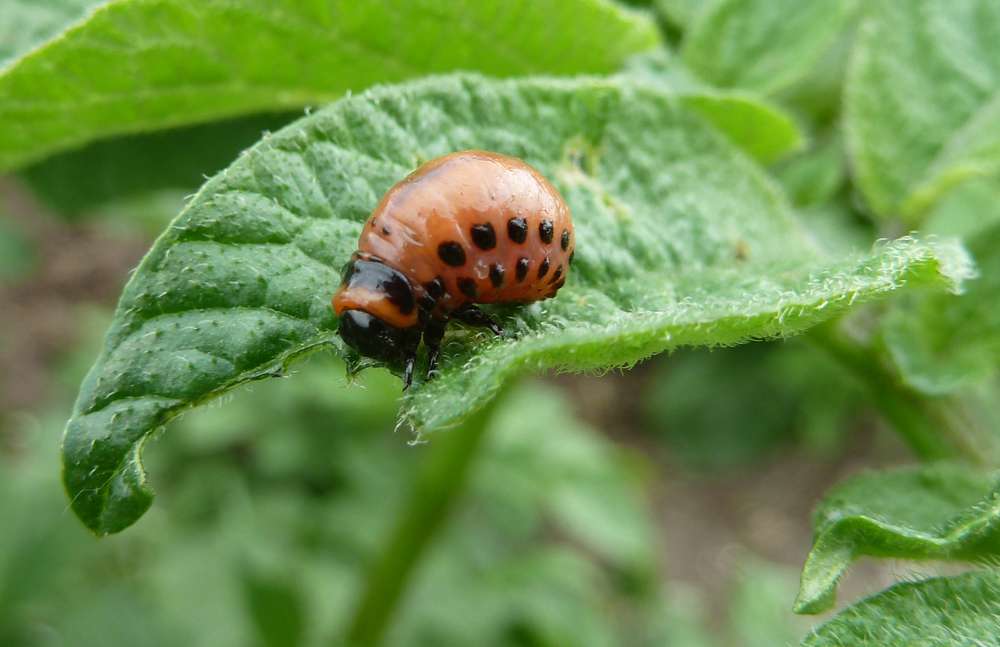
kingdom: Animalia
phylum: Arthropoda
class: Insecta
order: Coleoptera
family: Chrysomelidae
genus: Leptinotarsa
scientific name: Leptinotarsa decemlineata
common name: Colorado potato beetle
